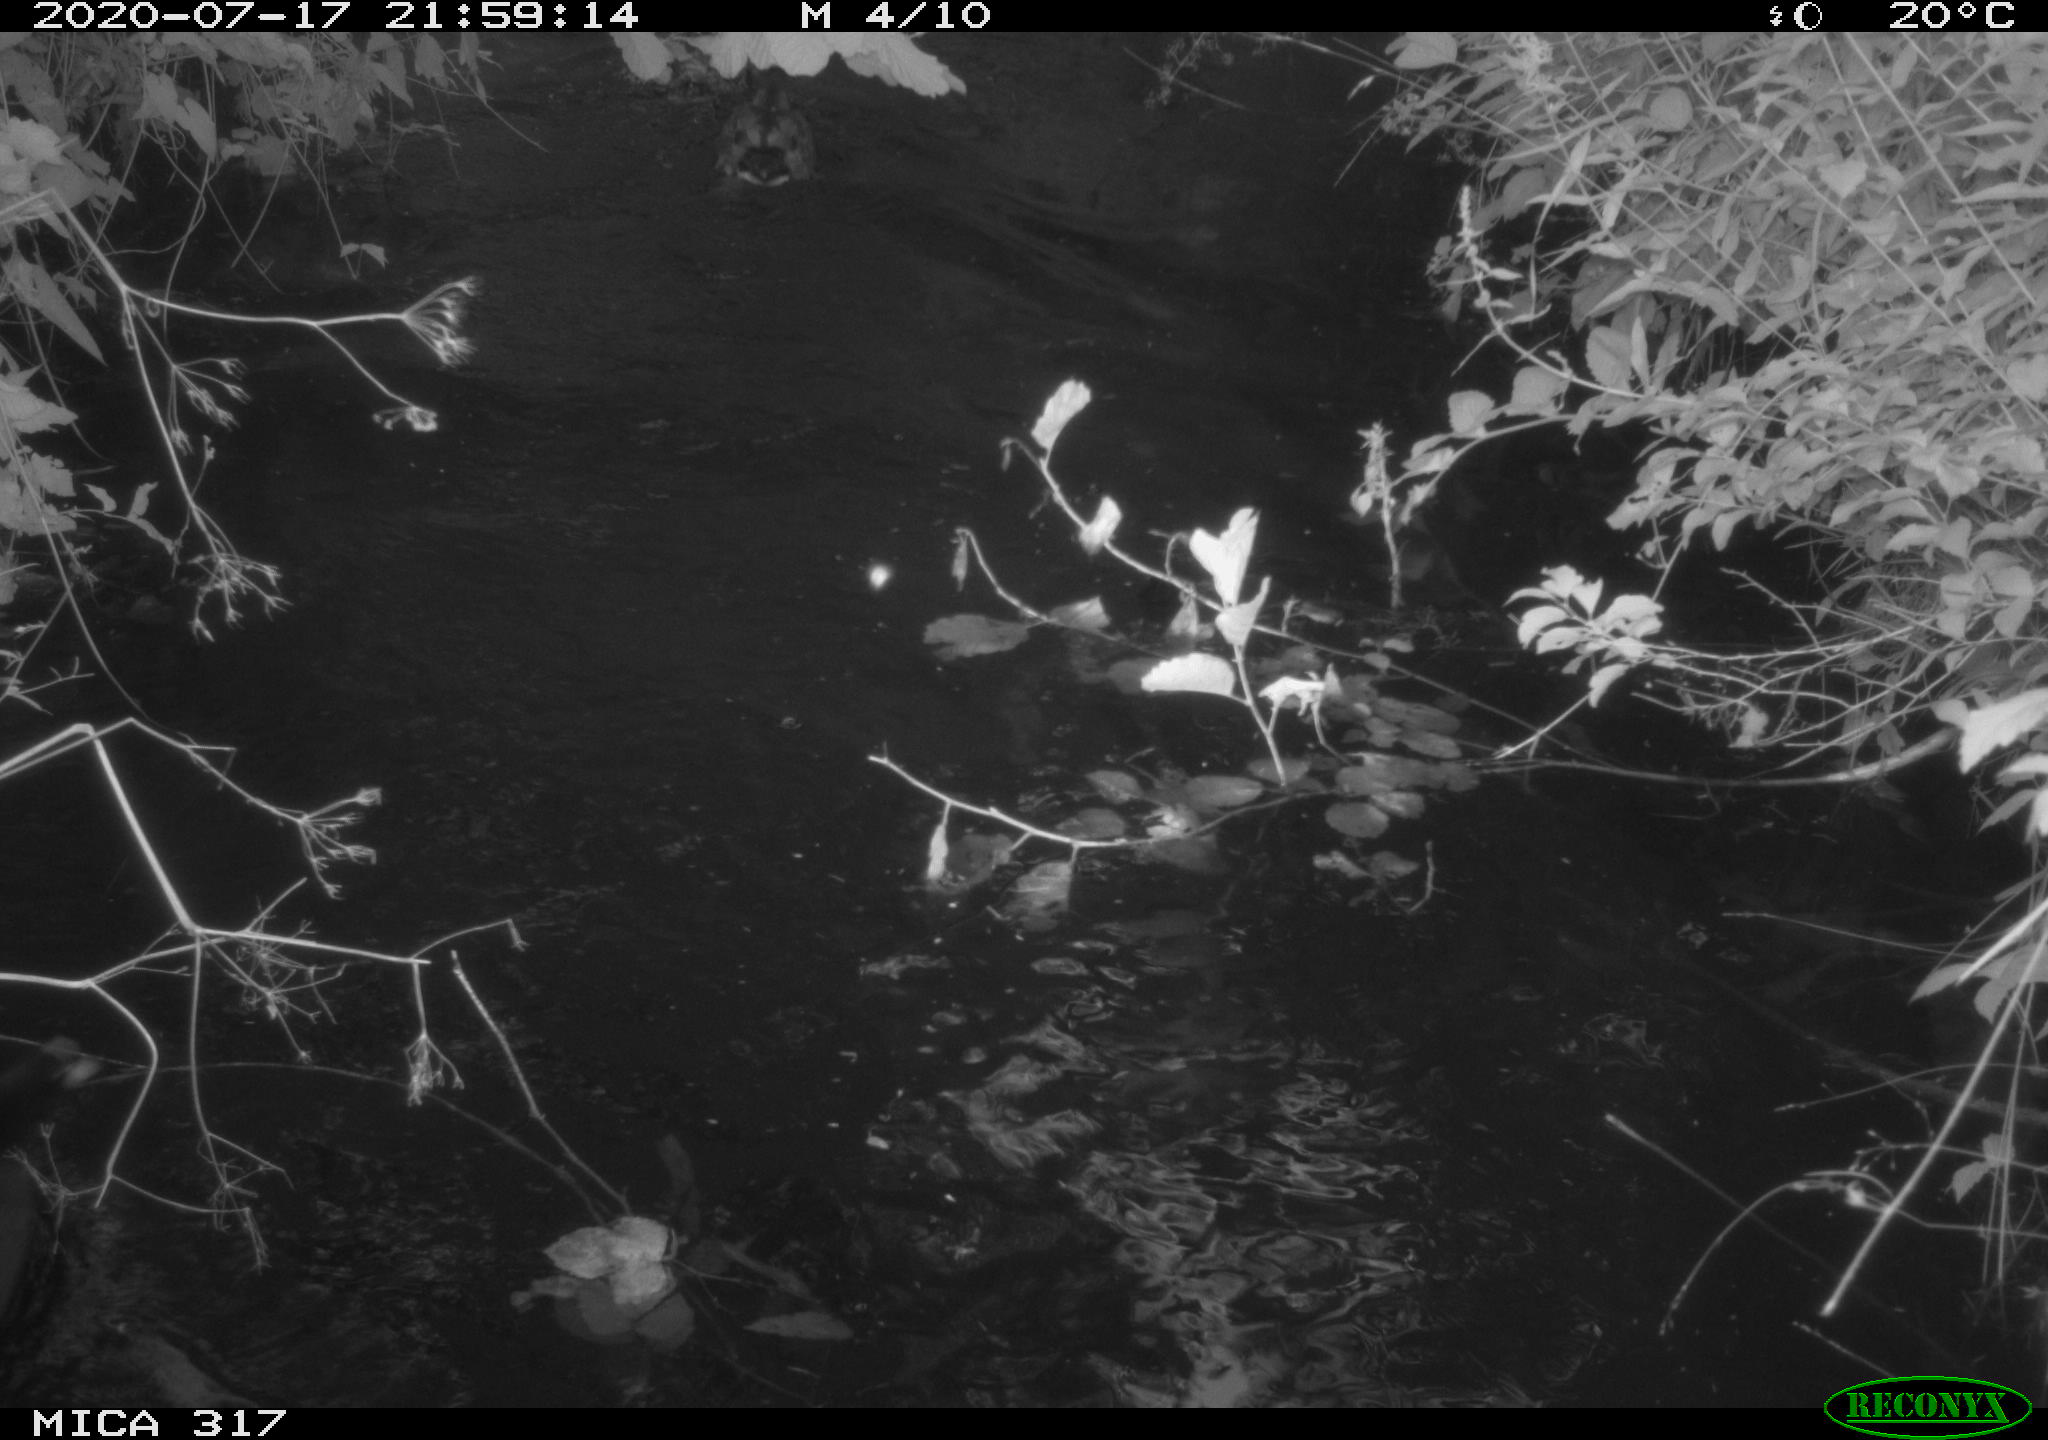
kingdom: Animalia
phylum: Chordata
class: Aves
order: Anseriformes
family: Anatidae
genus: Anas
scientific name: Anas platyrhynchos
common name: Mallard
